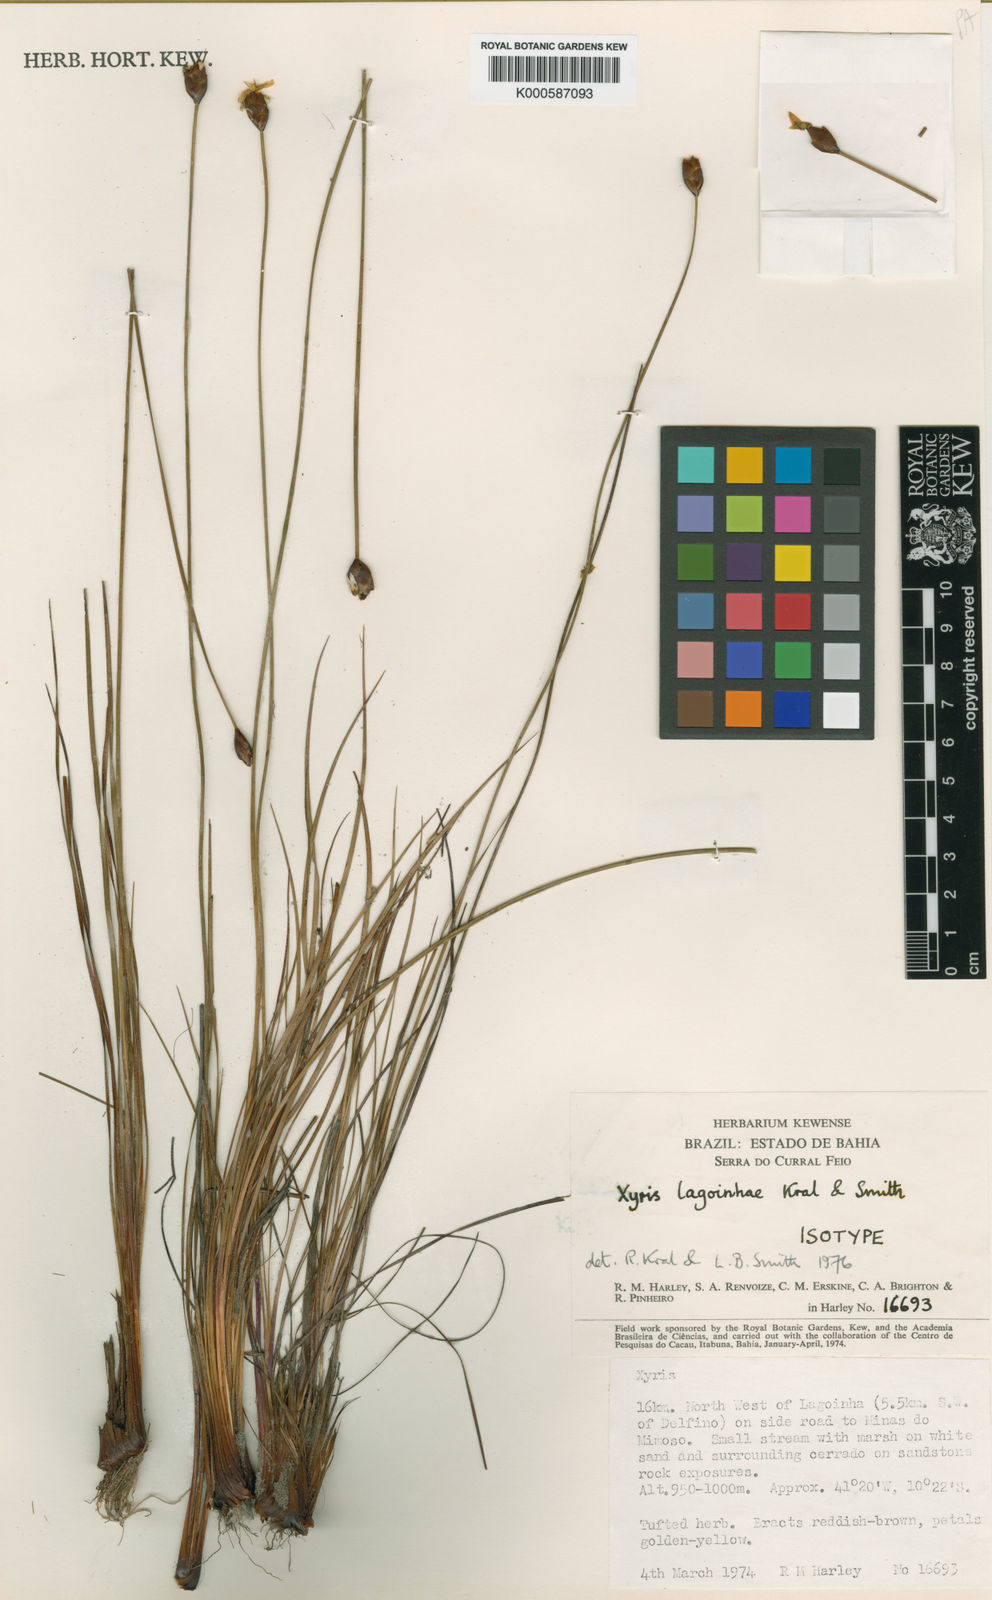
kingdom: Plantae
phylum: Tracheophyta
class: Liliopsida
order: Poales
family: Xyridaceae
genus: Xyris
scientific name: Xyris lagoinhae
